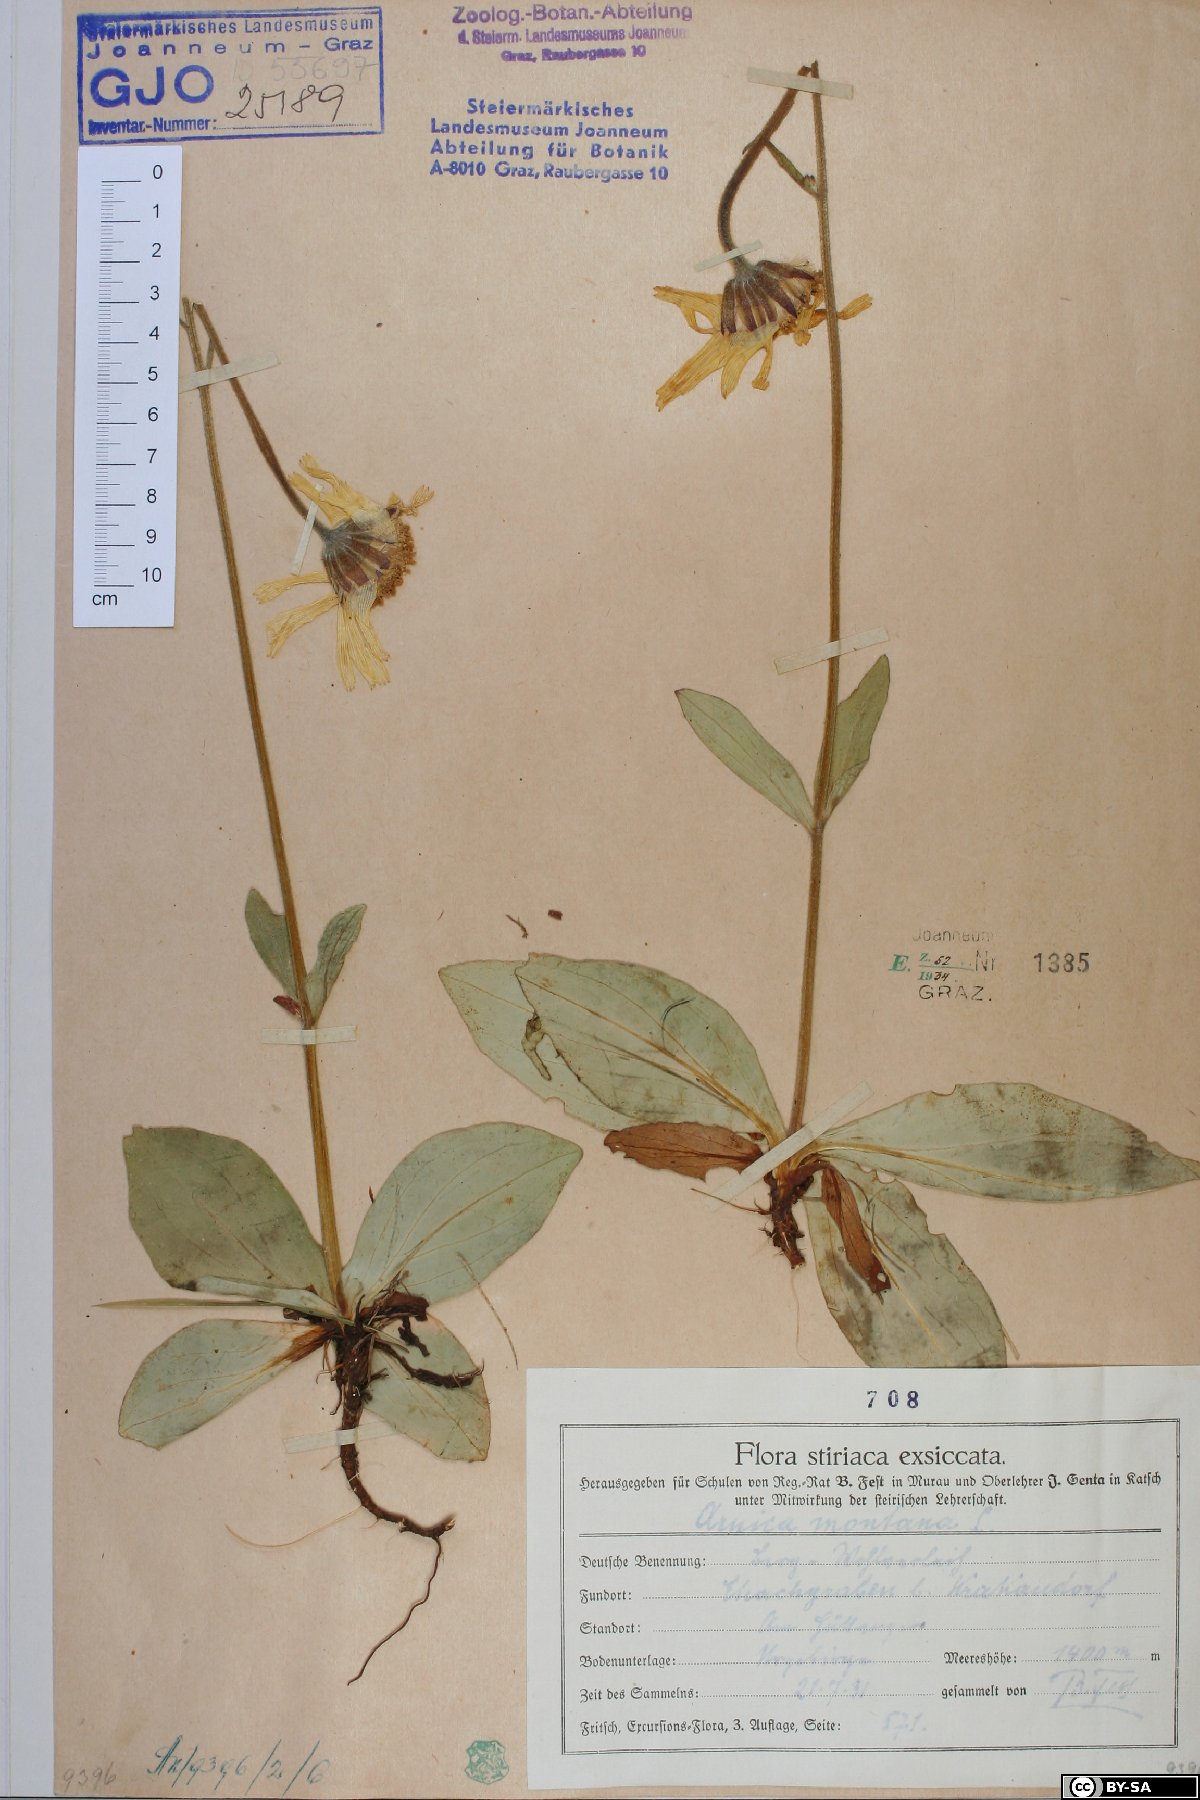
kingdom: Plantae
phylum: Tracheophyta
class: Magnoliopsida
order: Asterales
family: Asteraceae
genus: Arnica
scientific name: Arnica montana
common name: Leopard's bane
